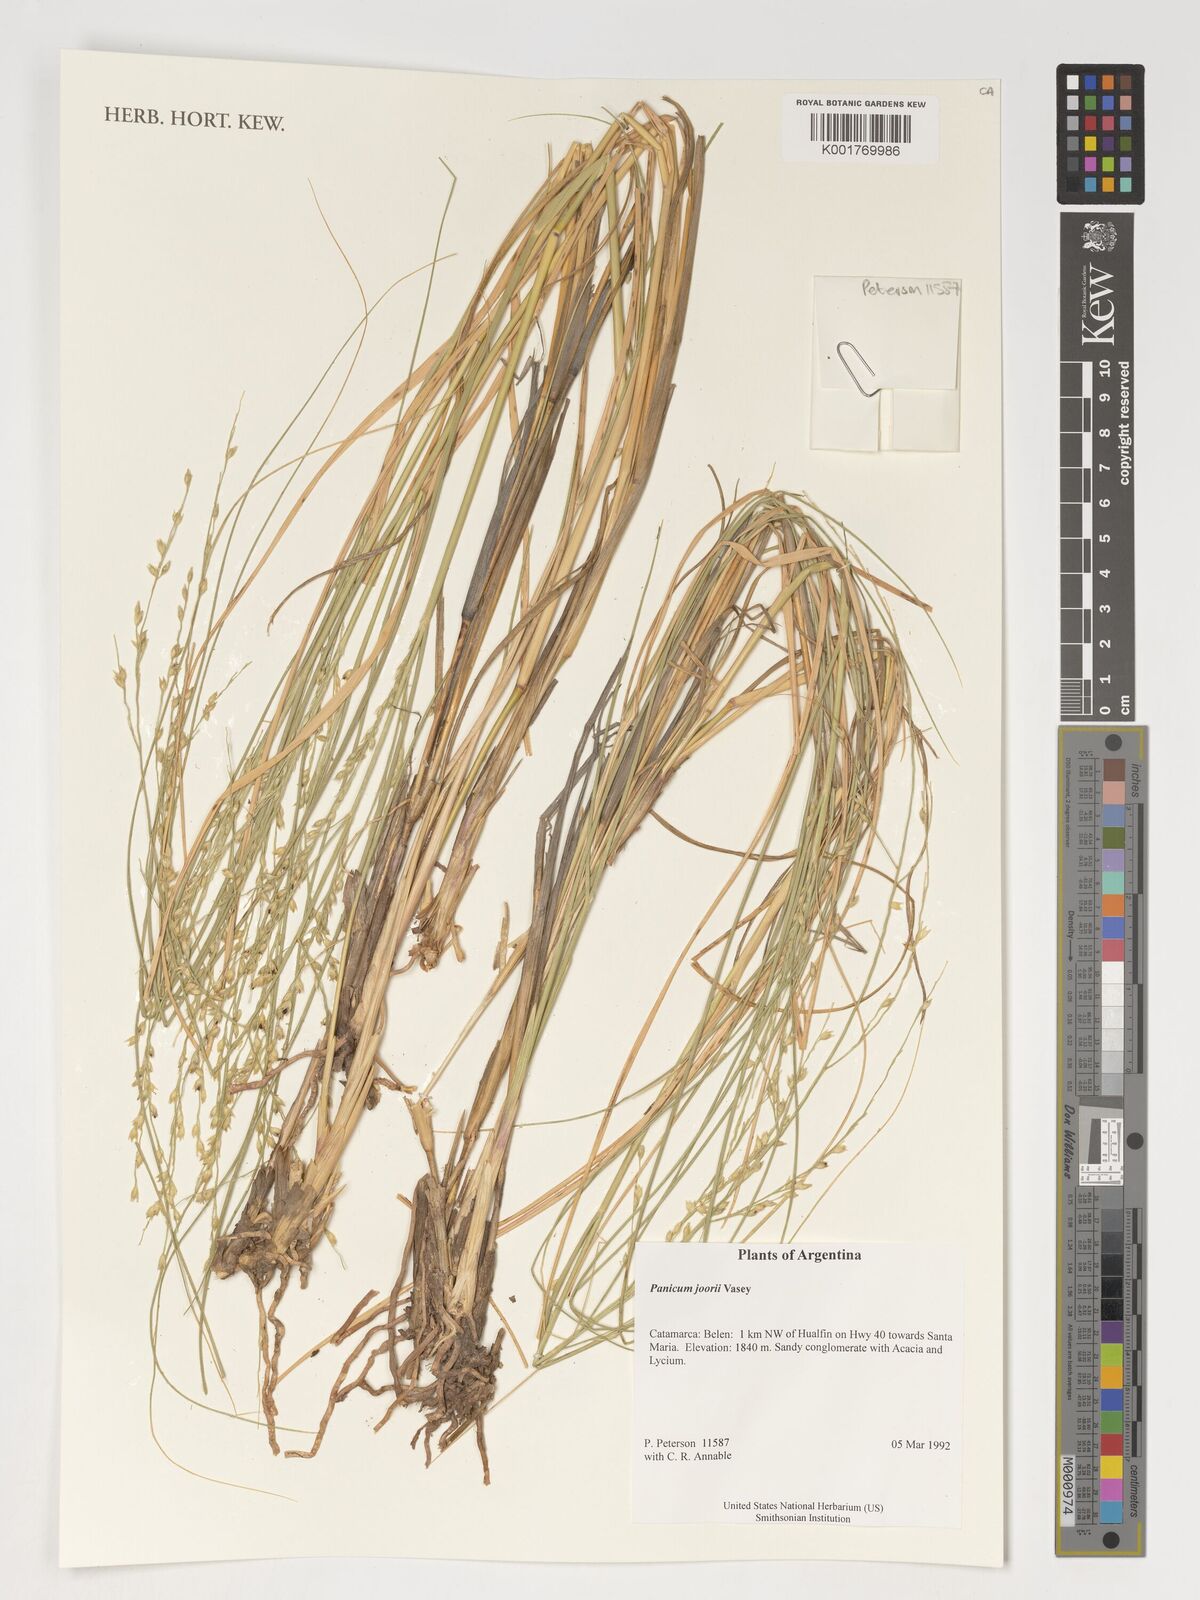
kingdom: Plantae
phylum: Tracheophyta
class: Liliopsida
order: Poales
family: Poaceae
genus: Dichanthelium
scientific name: Dichanthelium commutatum
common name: Variable witchgrass
